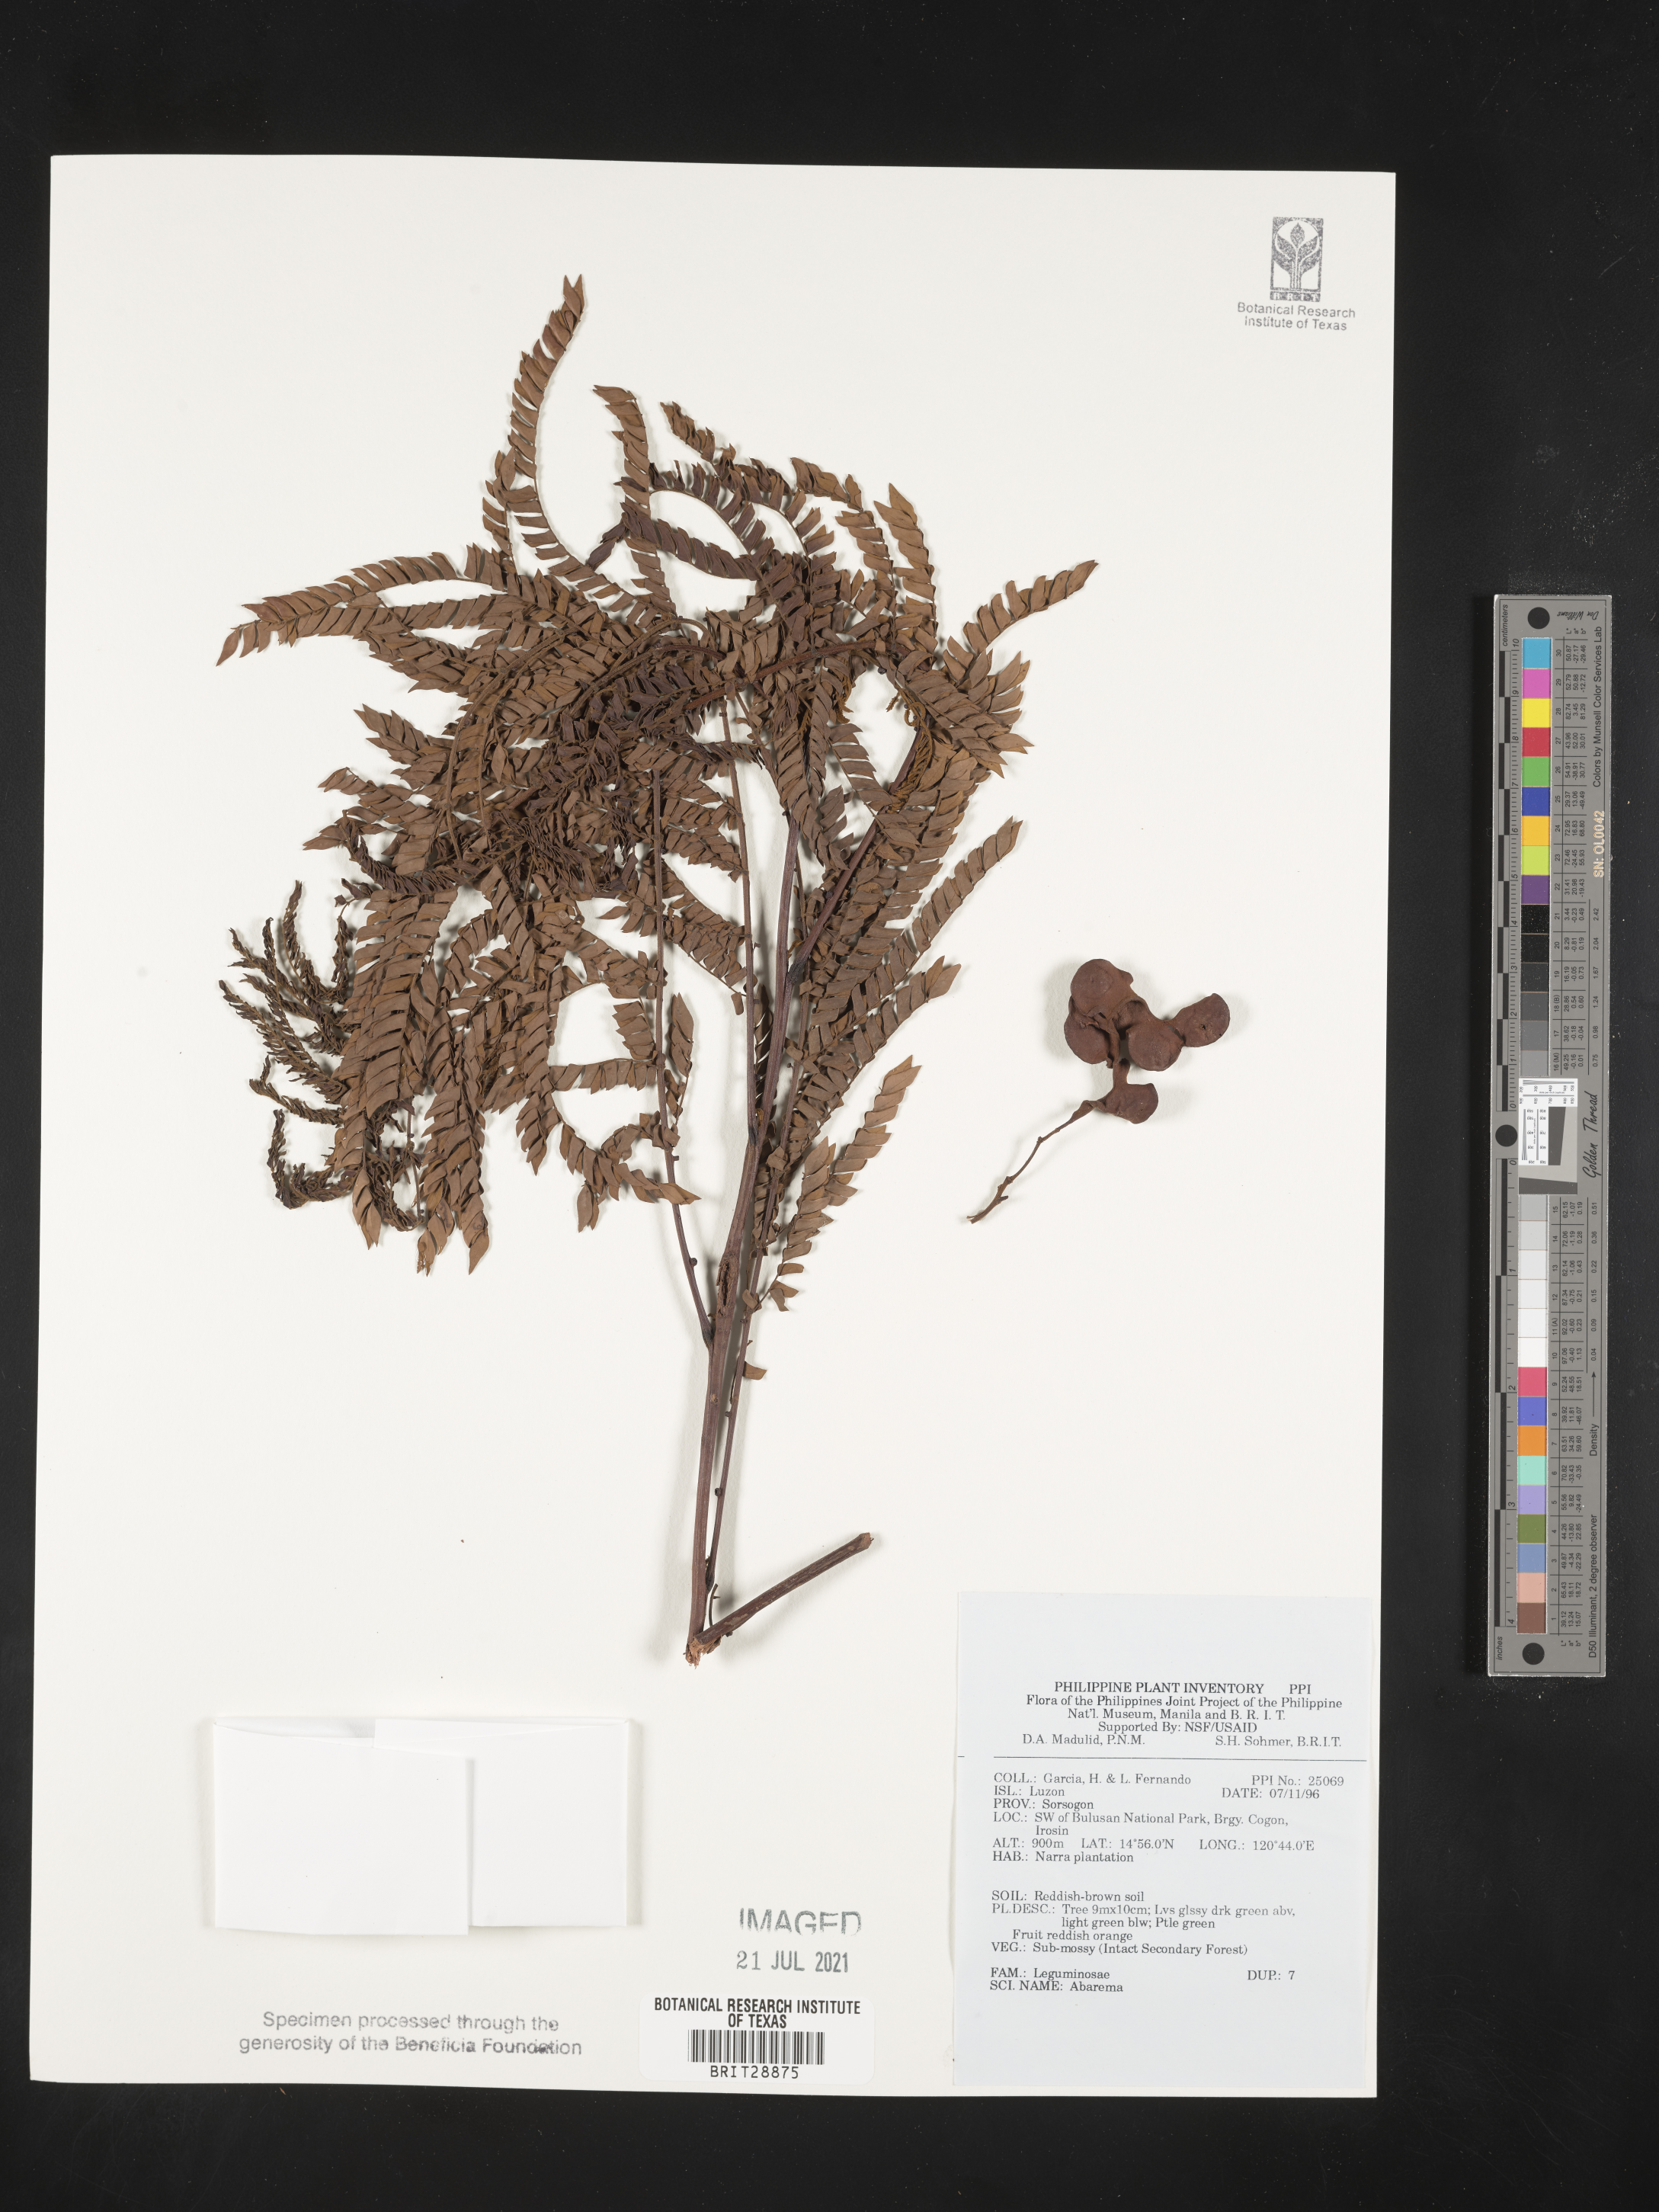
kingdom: Plantae
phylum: Tracheophyta
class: Magnoliopsida
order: Fabales
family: Fabaceae
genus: Abarema
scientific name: Abarema
